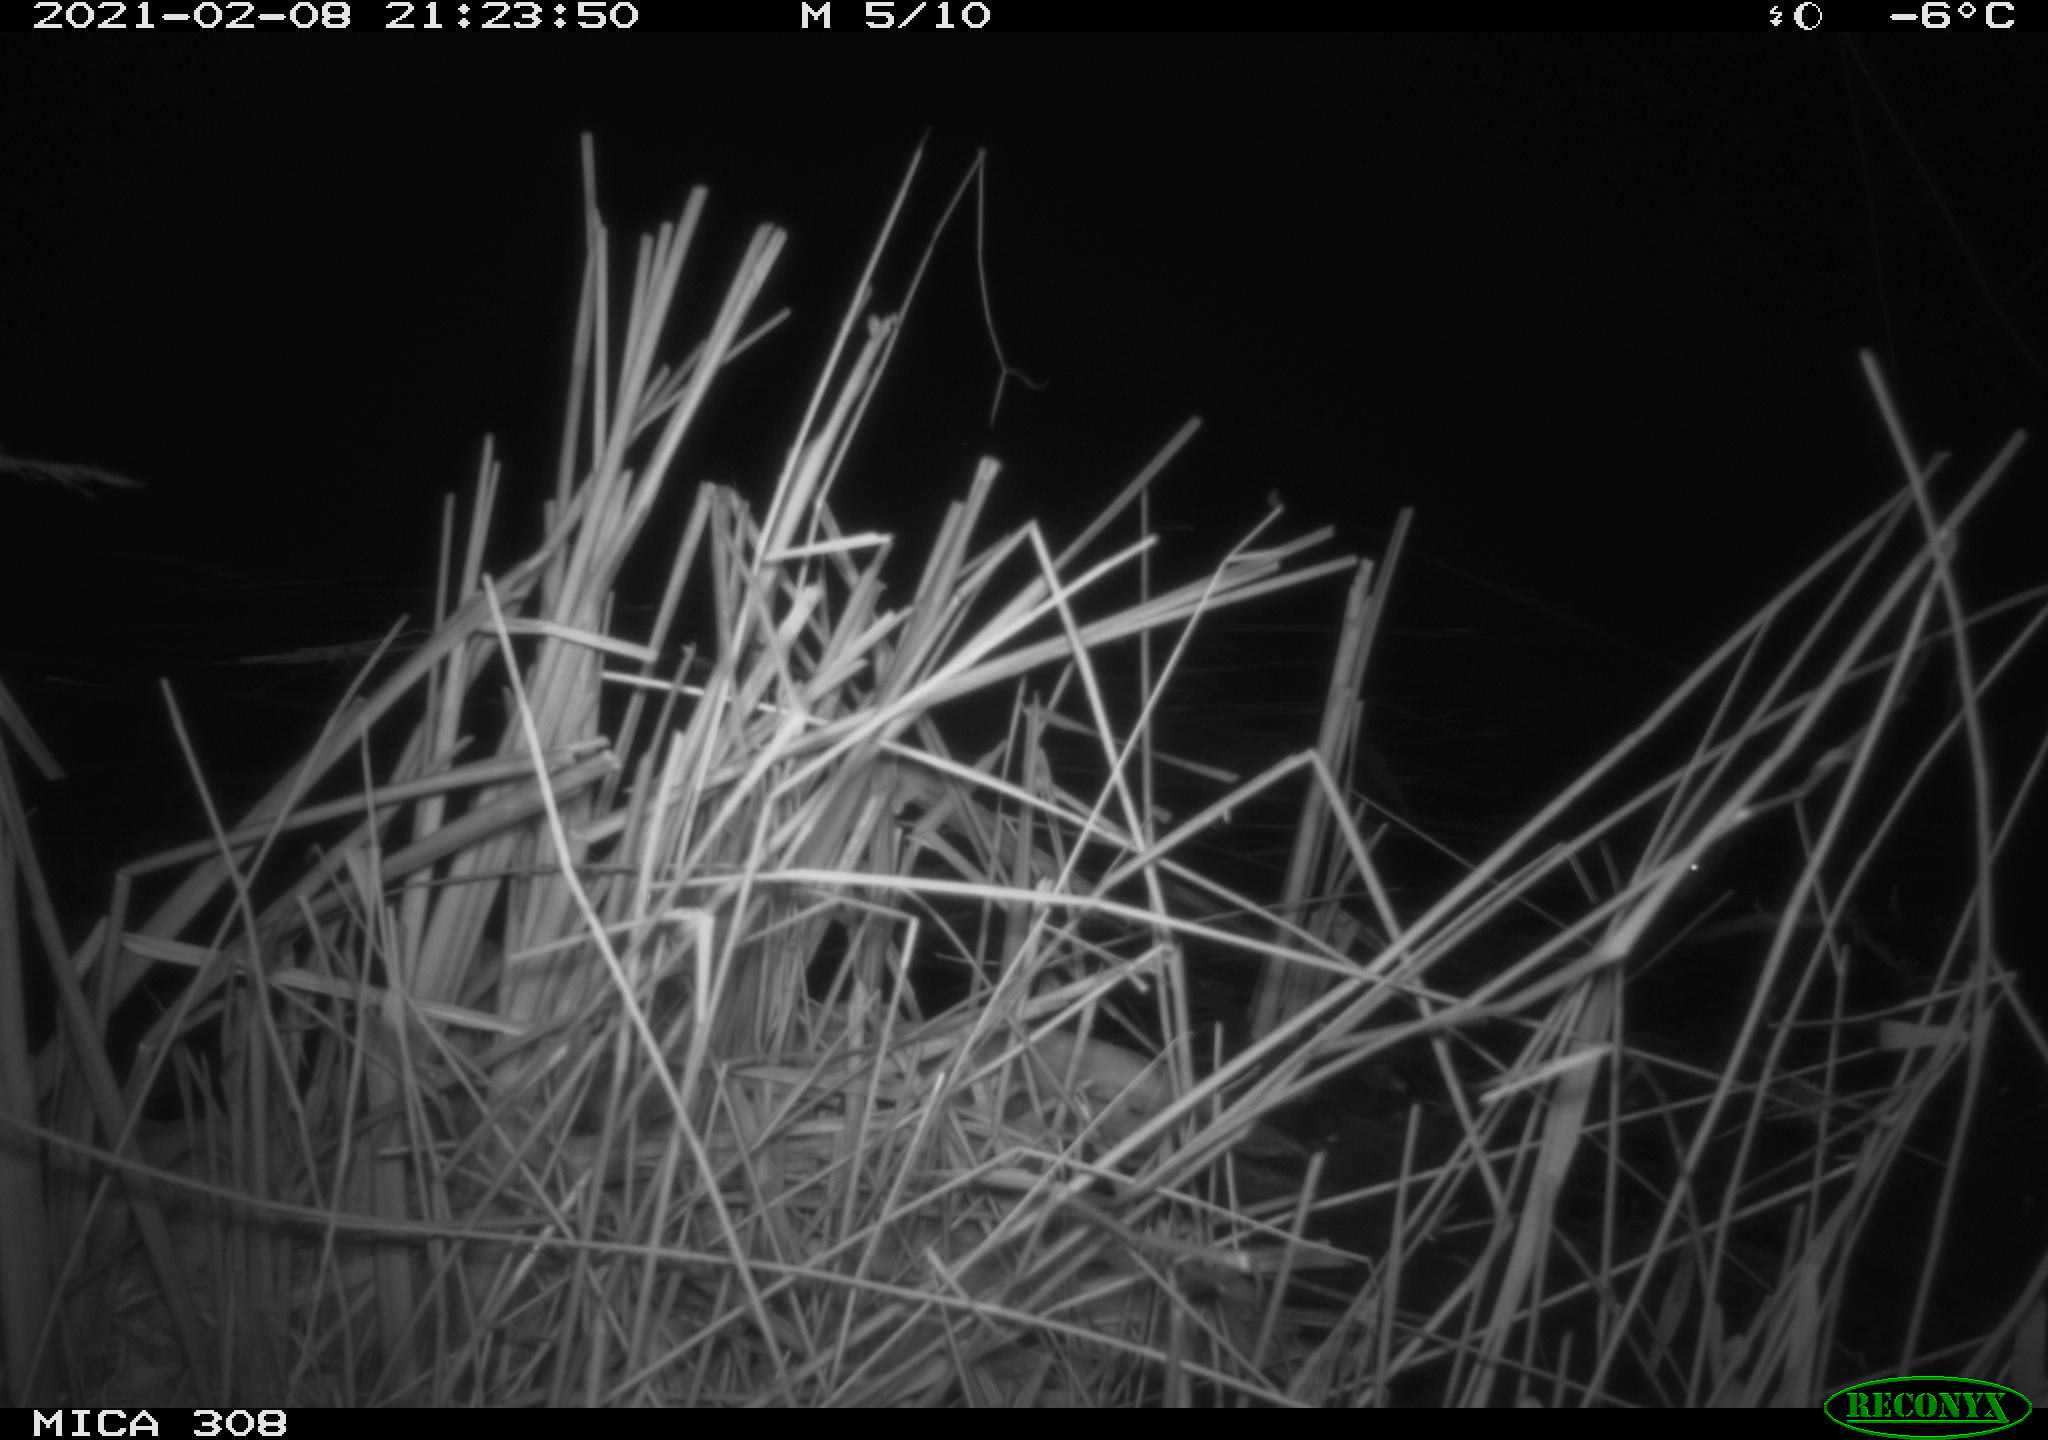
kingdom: Animalia
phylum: Chordata
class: Mammalia
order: Rodentia
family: Muridae
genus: Rattus
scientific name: Rattus norvegicus
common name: Brown rat
